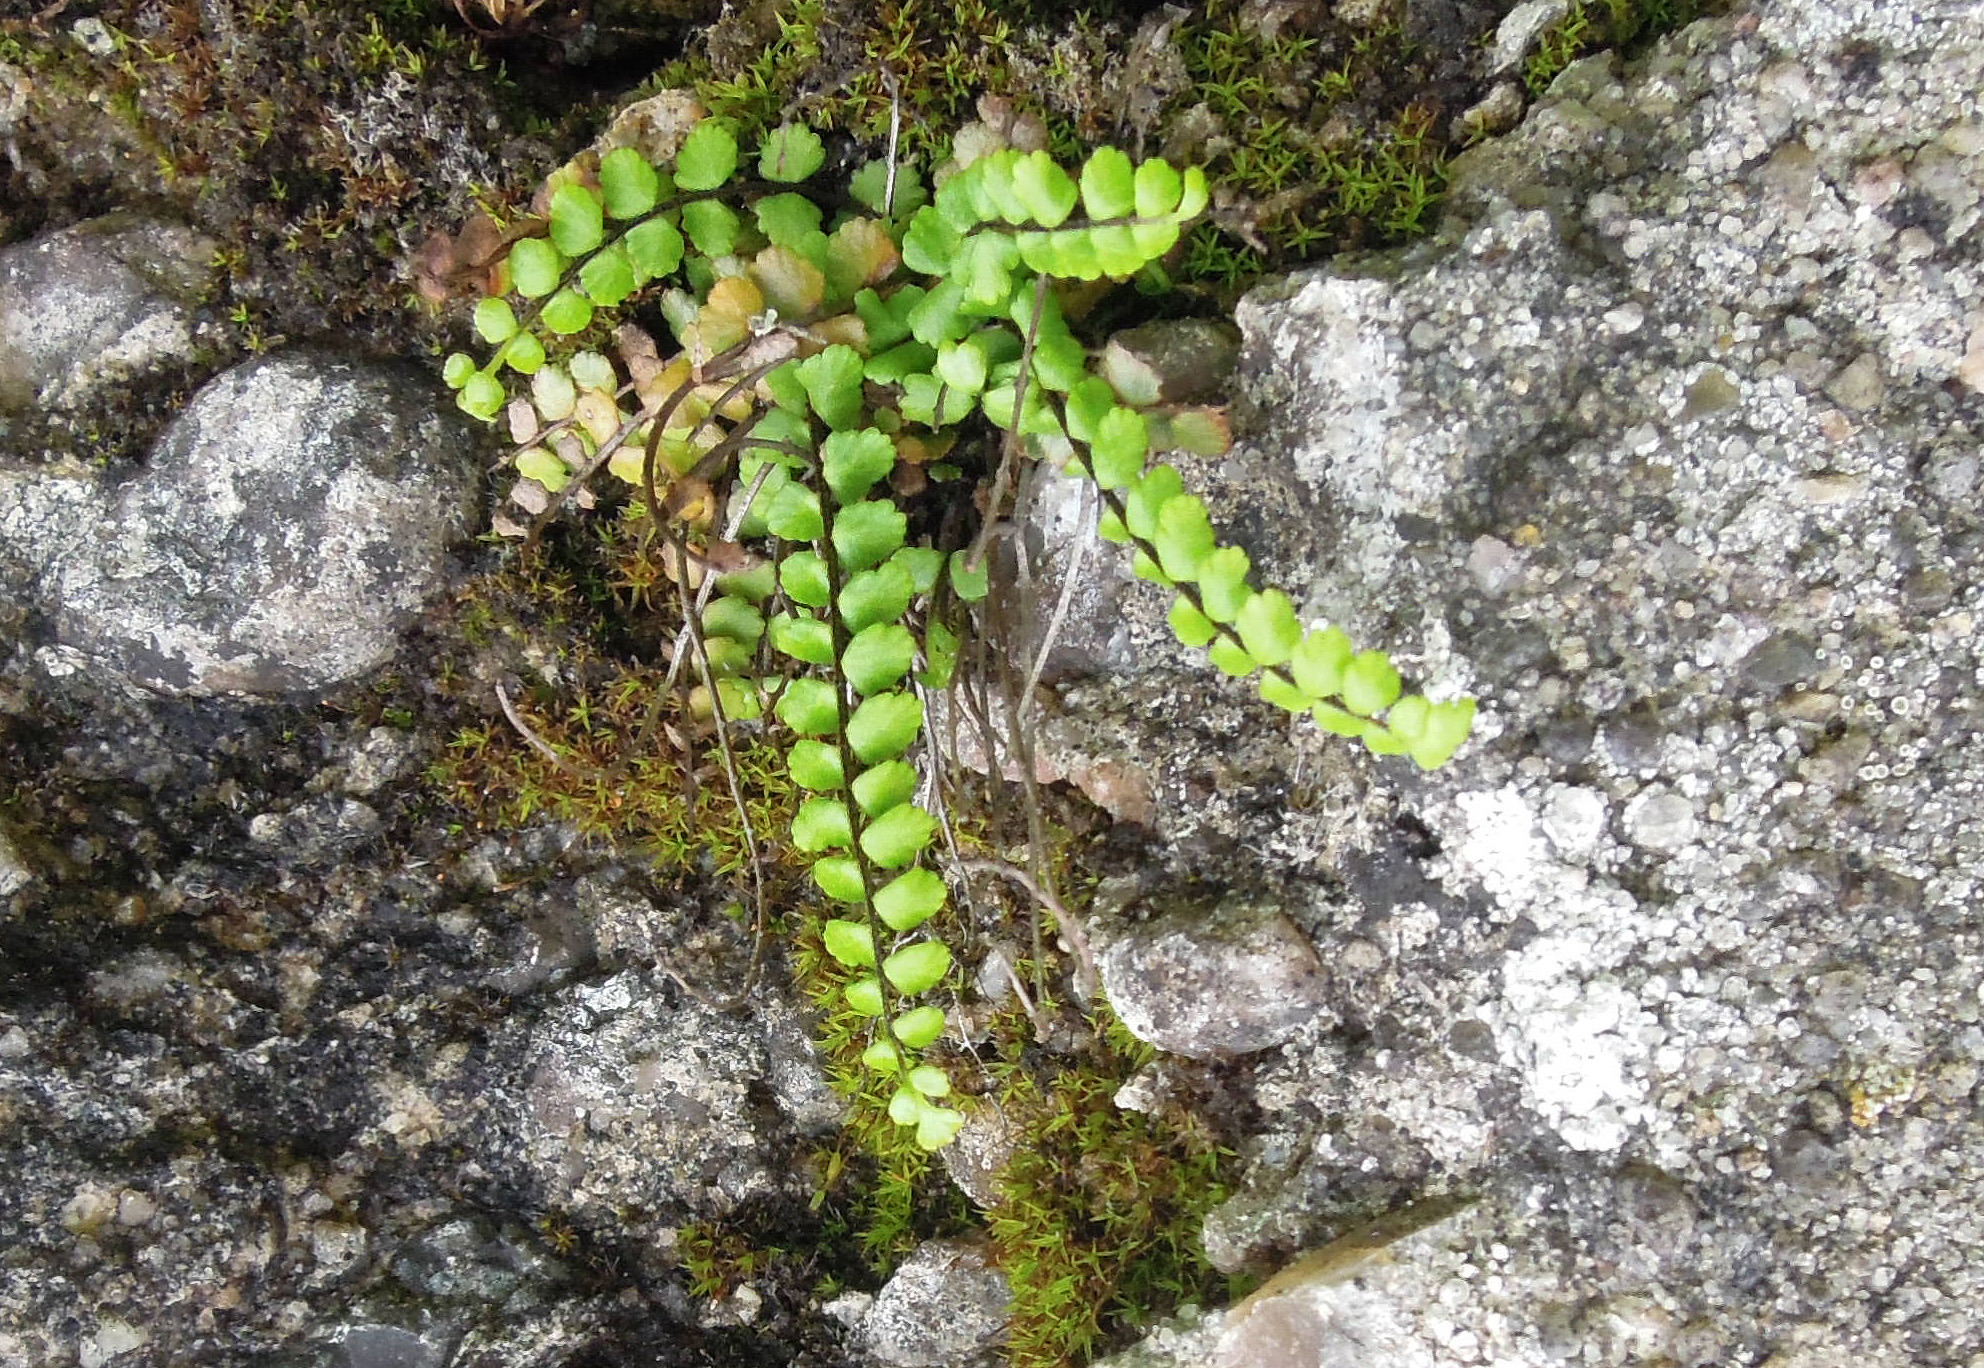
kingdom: Plantae
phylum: Tracheophyta
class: Polypodiopsida
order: Polypodiales
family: Aspleniaceae
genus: Asplenium
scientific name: Asplenium trichomanes
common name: Rundfinnet radeløv
